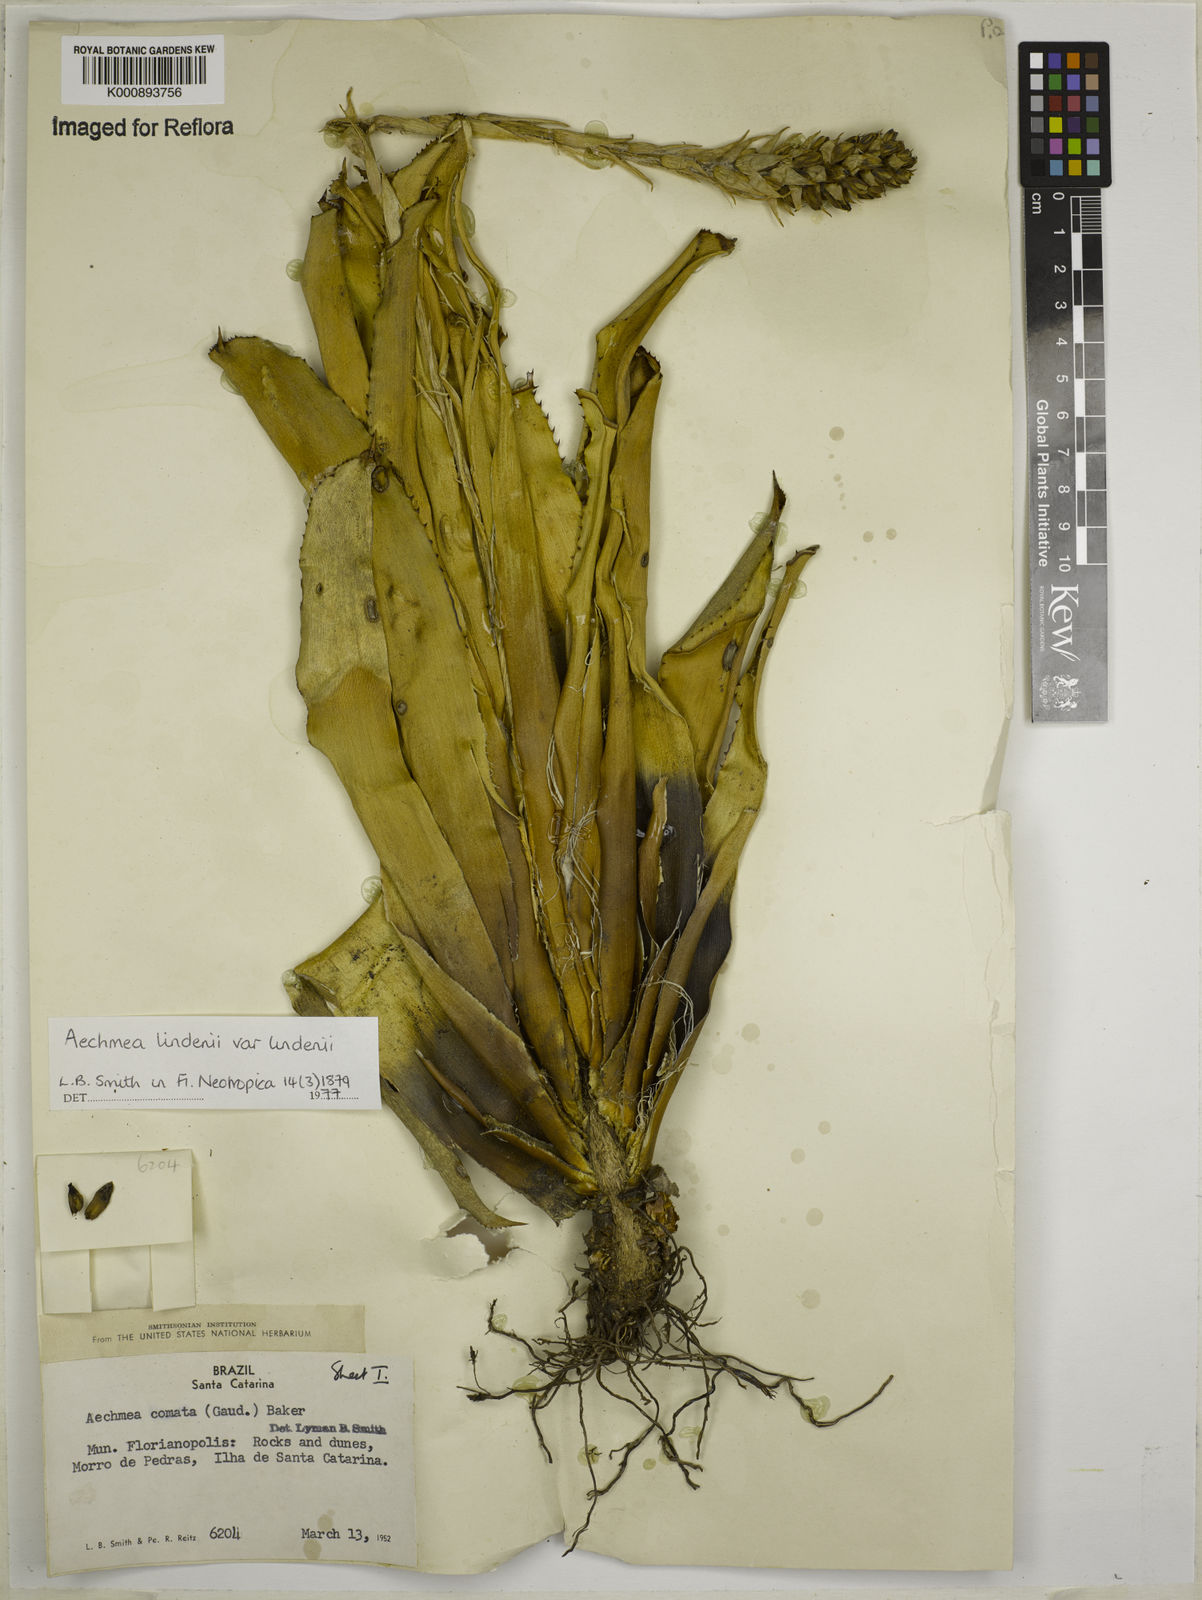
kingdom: Plantae
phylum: Tracheophyta
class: Liliopsida
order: Poales
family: Bromeliaceae
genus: Aechmea
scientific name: Aechmea
